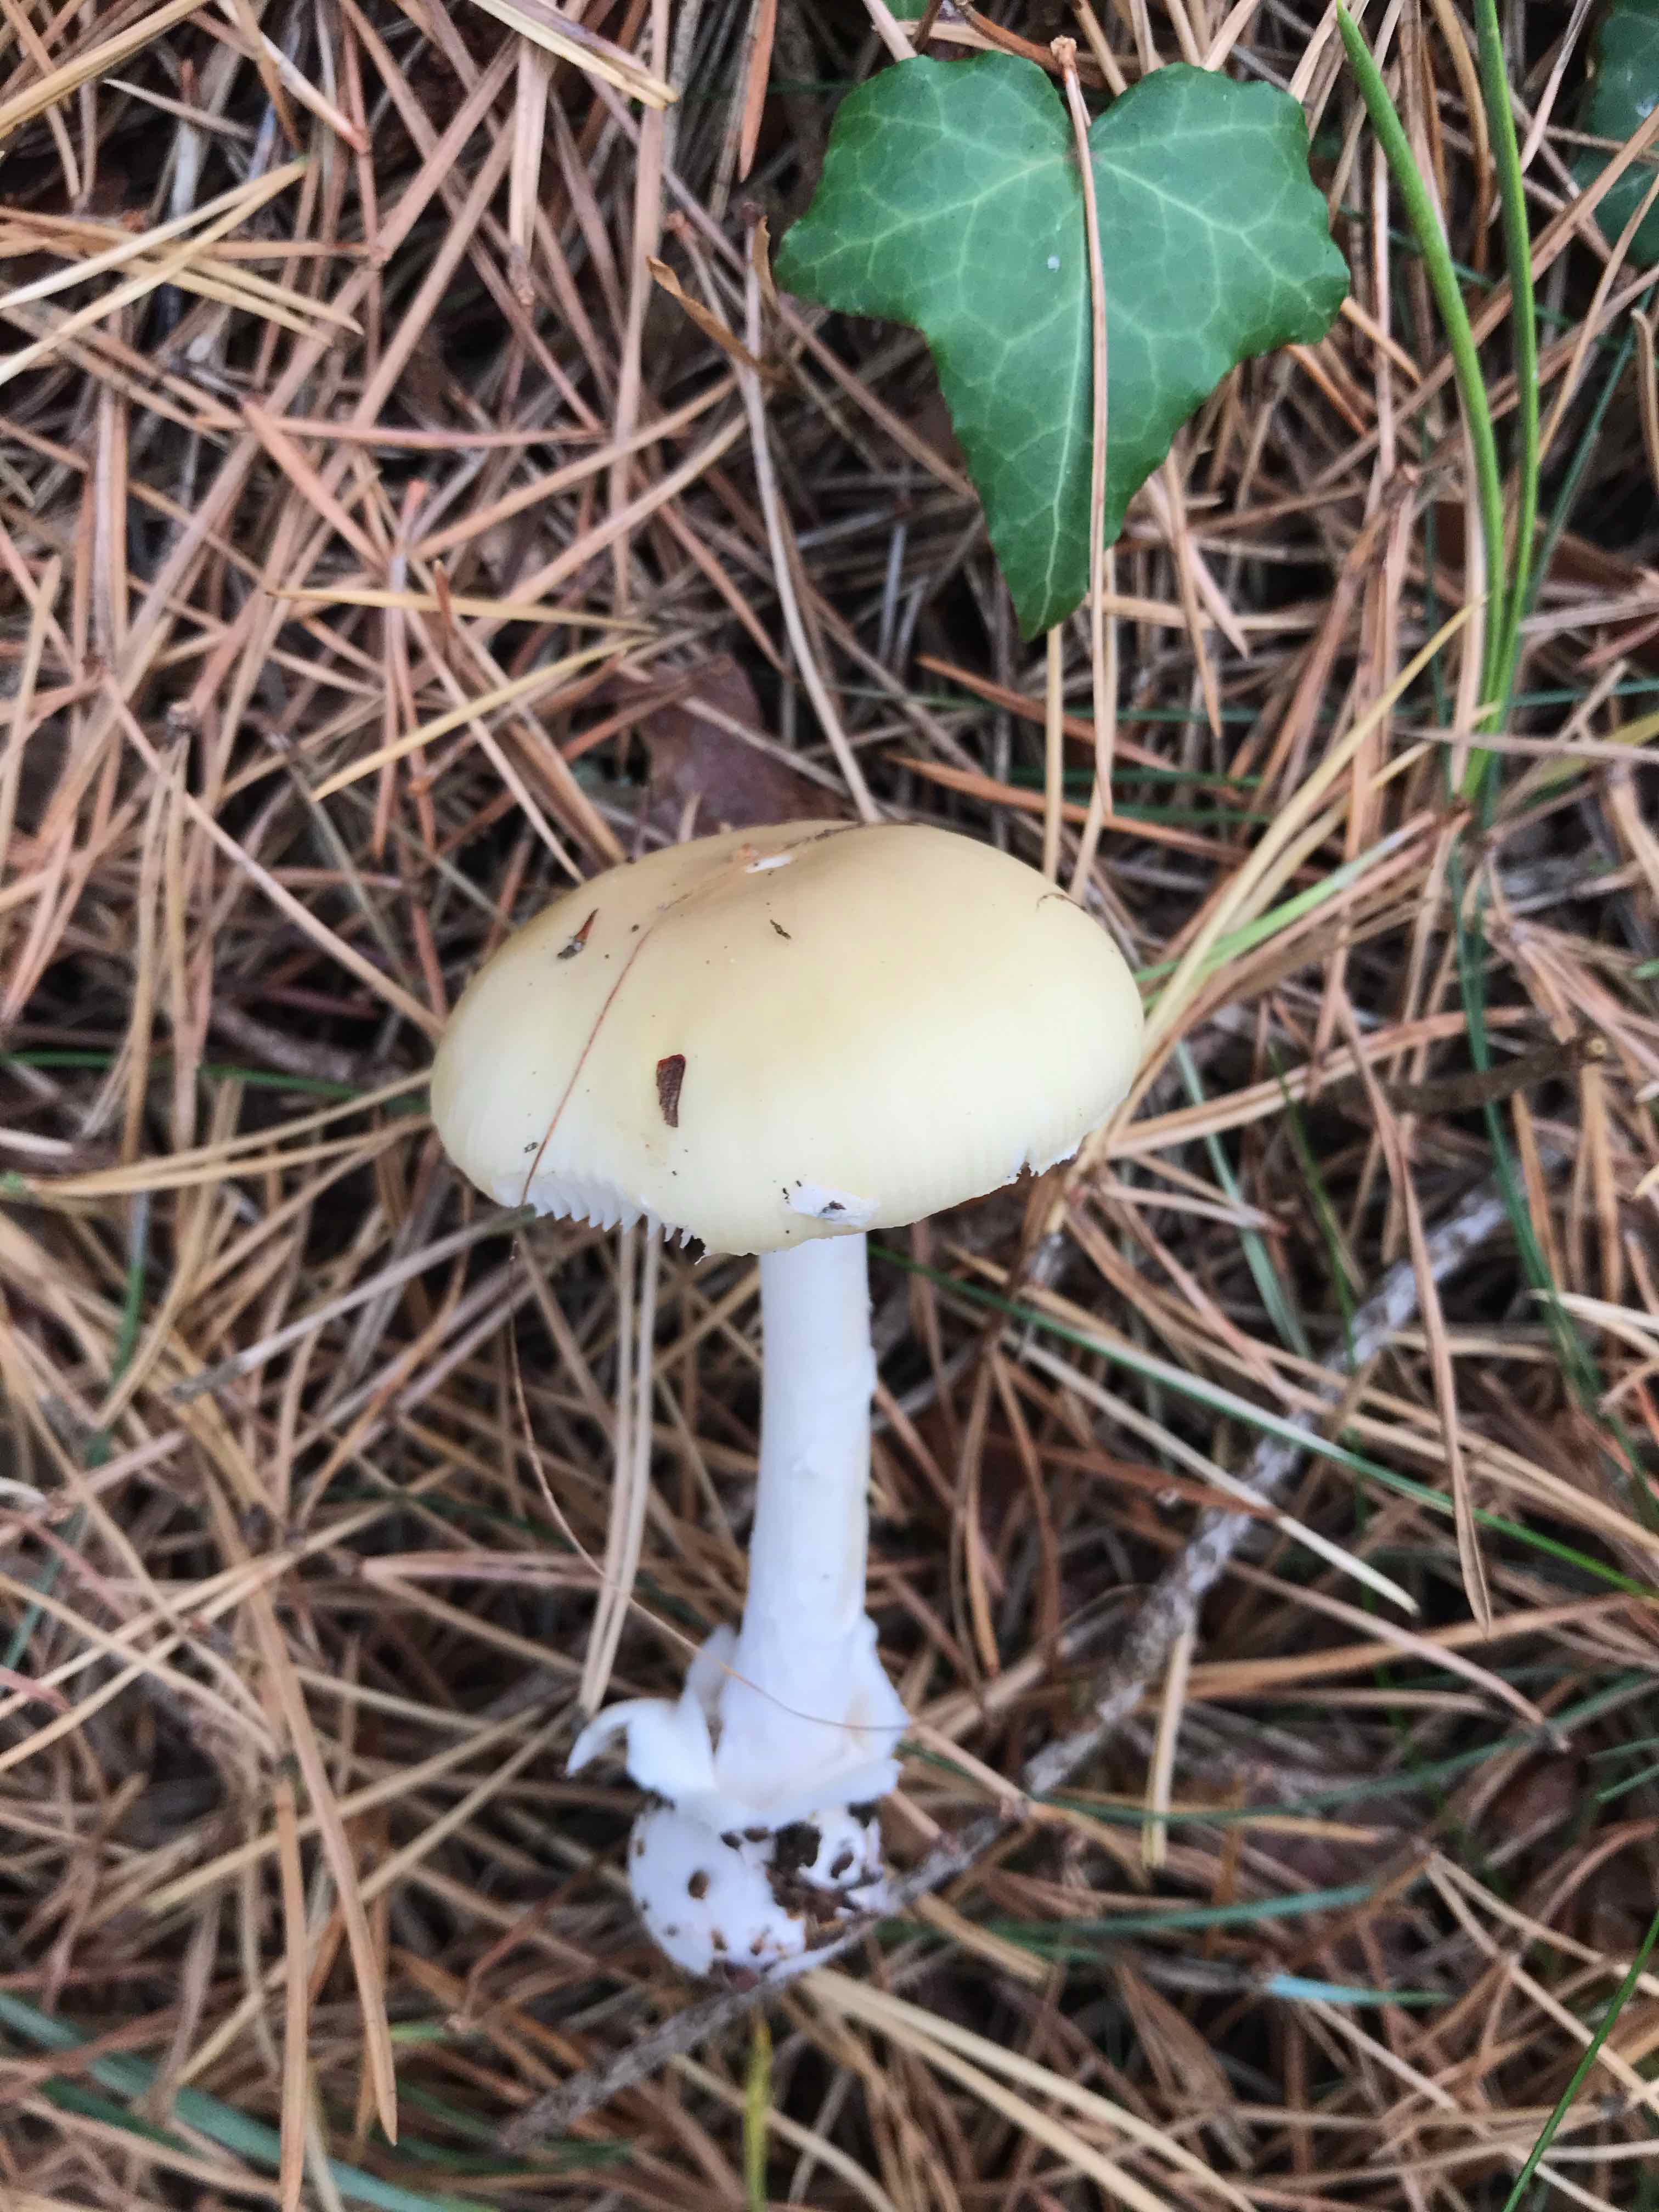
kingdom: Fungi
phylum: Basidiomycota
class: Agaricomycetes
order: Agaricales
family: Amanitaceae
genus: Amanita
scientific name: Amanita gemmata
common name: okkergul fluesvamp
